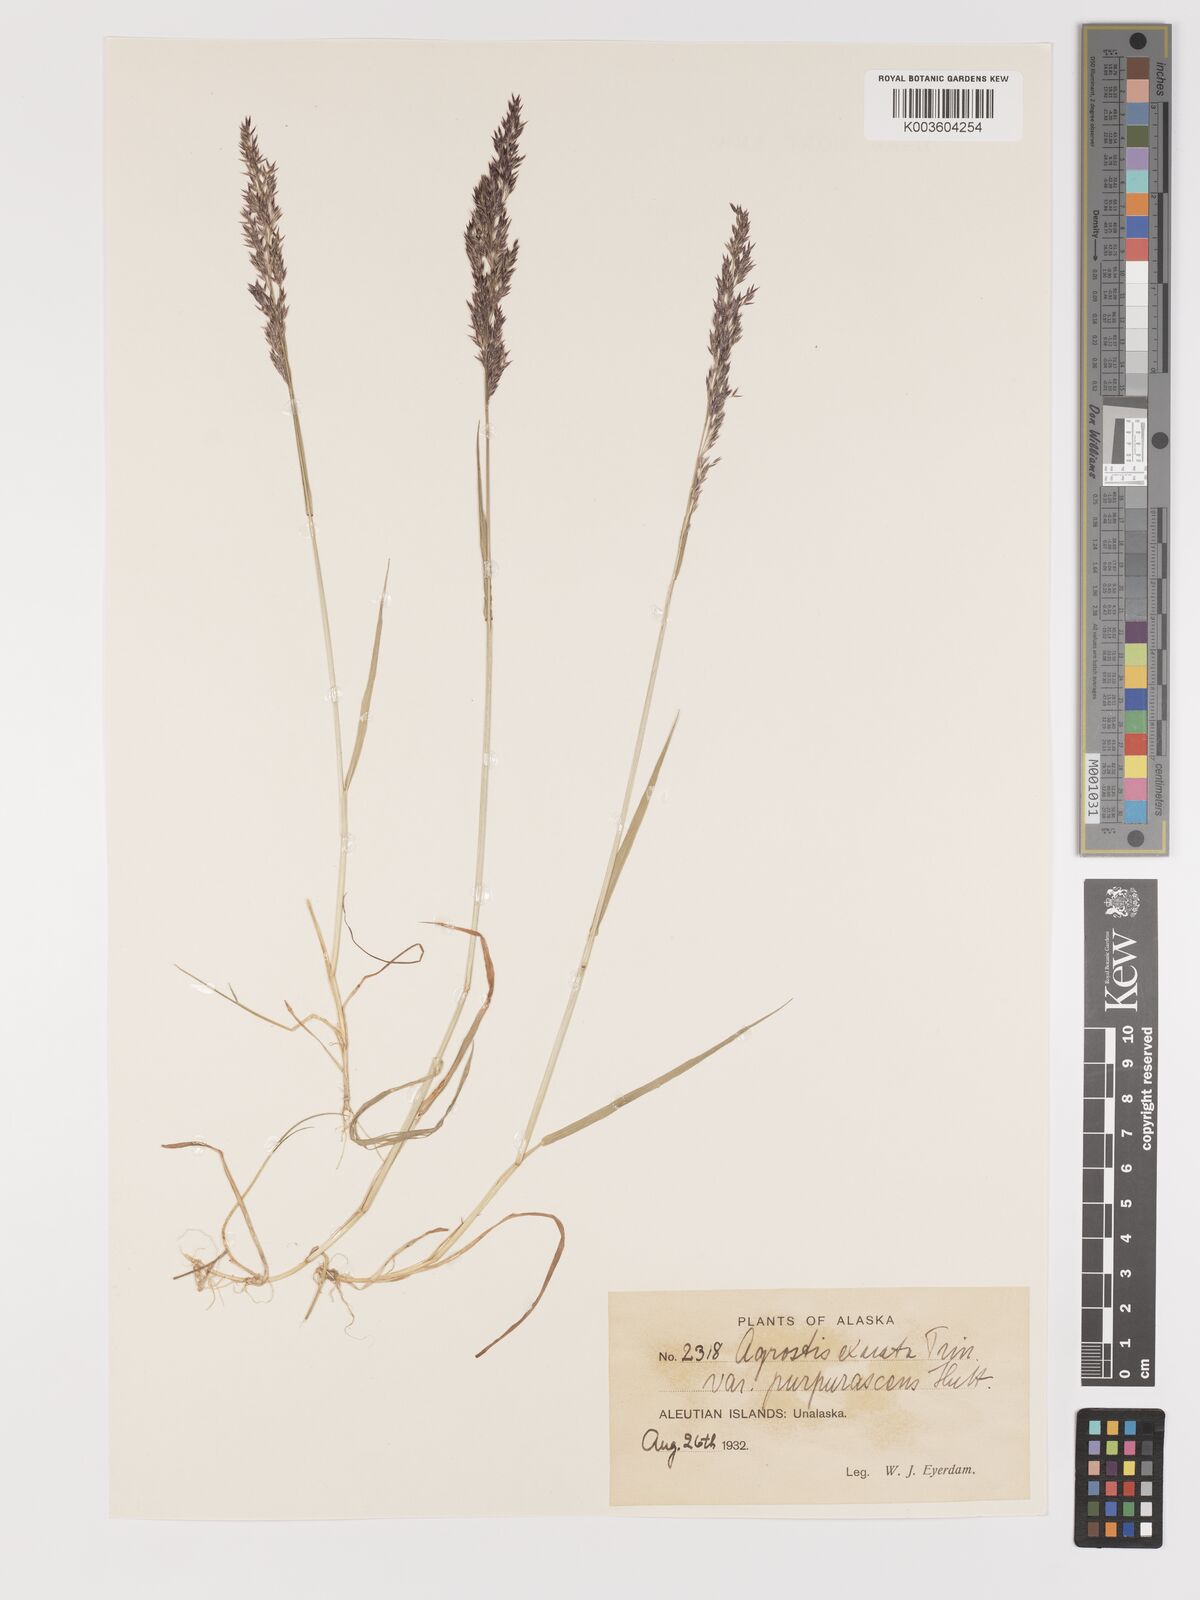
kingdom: Plantae
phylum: Tracheophyta
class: Liliopsida
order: Poales
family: Poaceae
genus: Agrostis
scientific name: Agrostis exarata
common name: Spike bent
